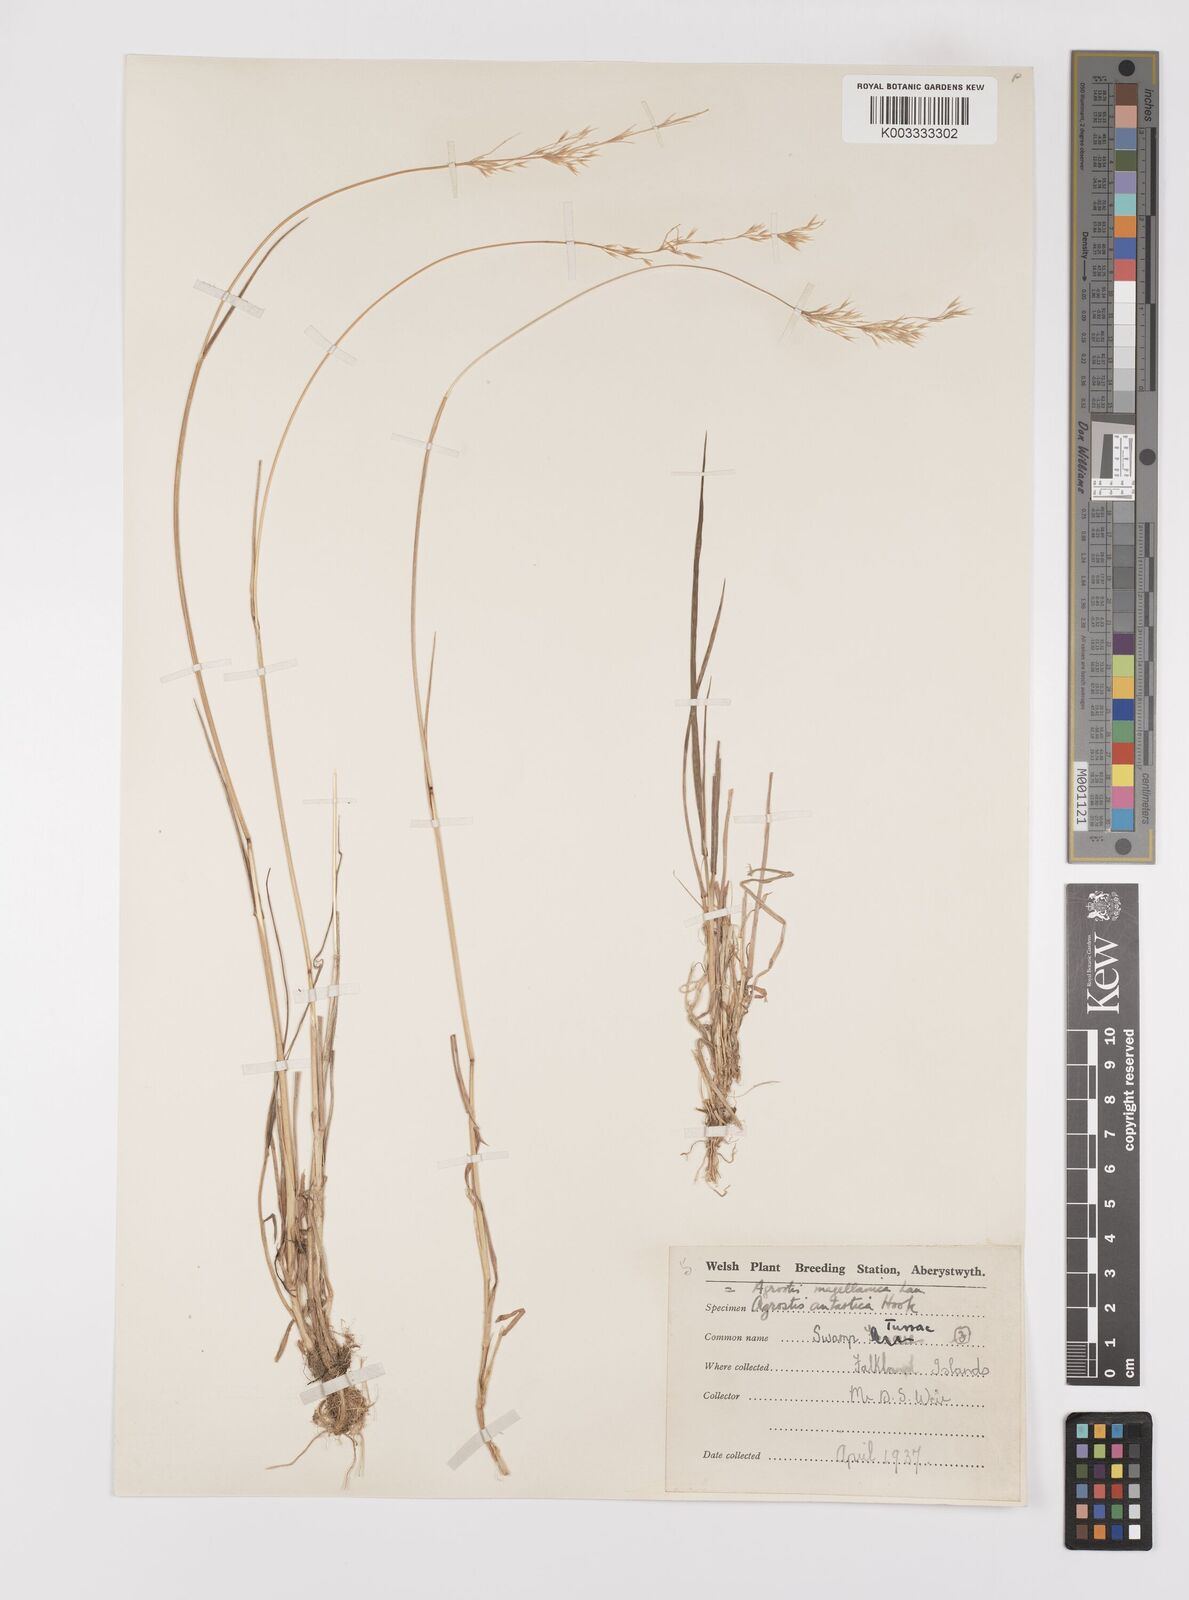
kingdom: Plantae
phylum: Tracheophyta
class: Liliopsida
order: Poales
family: Poaceae
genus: Polypogon
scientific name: Polypogon magellanicus
